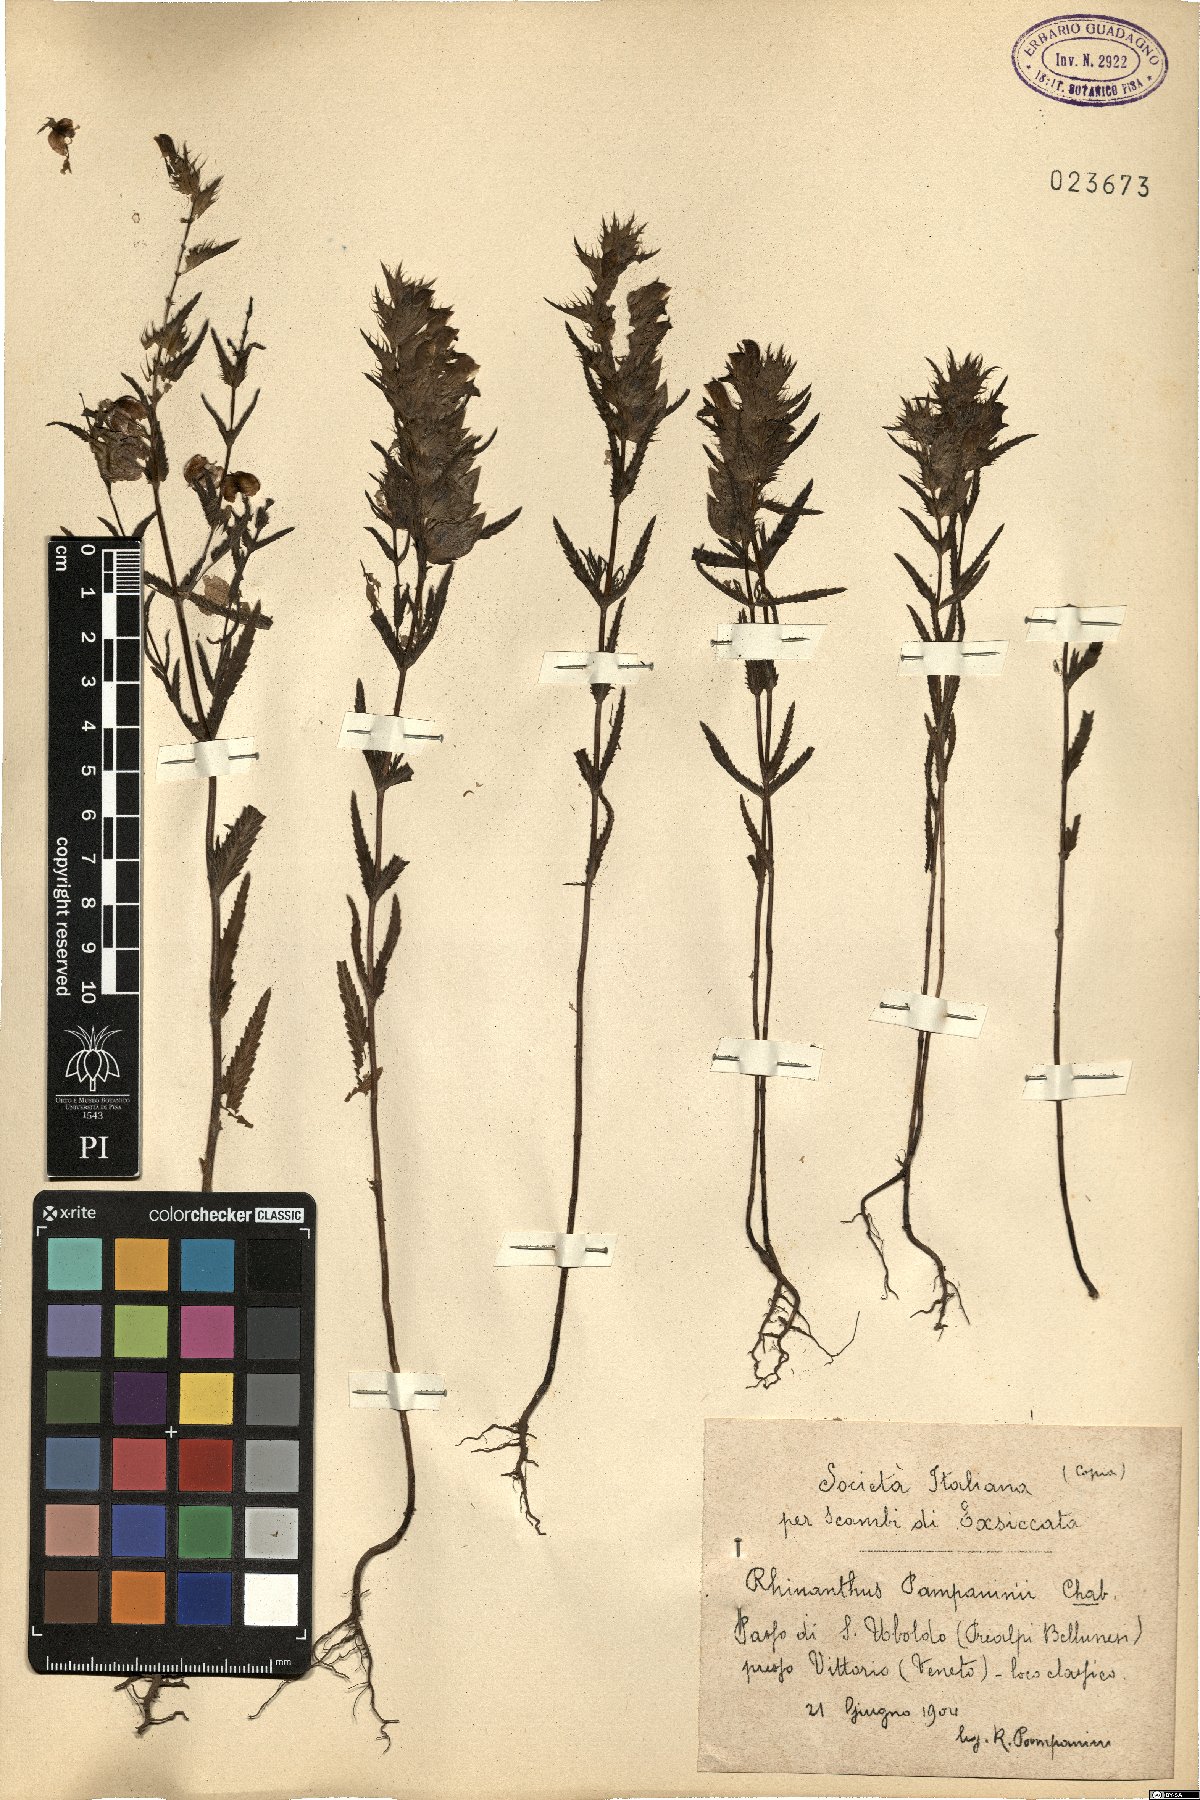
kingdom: Plantae
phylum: Tracheophyta
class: Magnoliopsida
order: Lamiales
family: Orobanchaceae
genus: Rhinanthus
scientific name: Rhinanthus pampaninii
